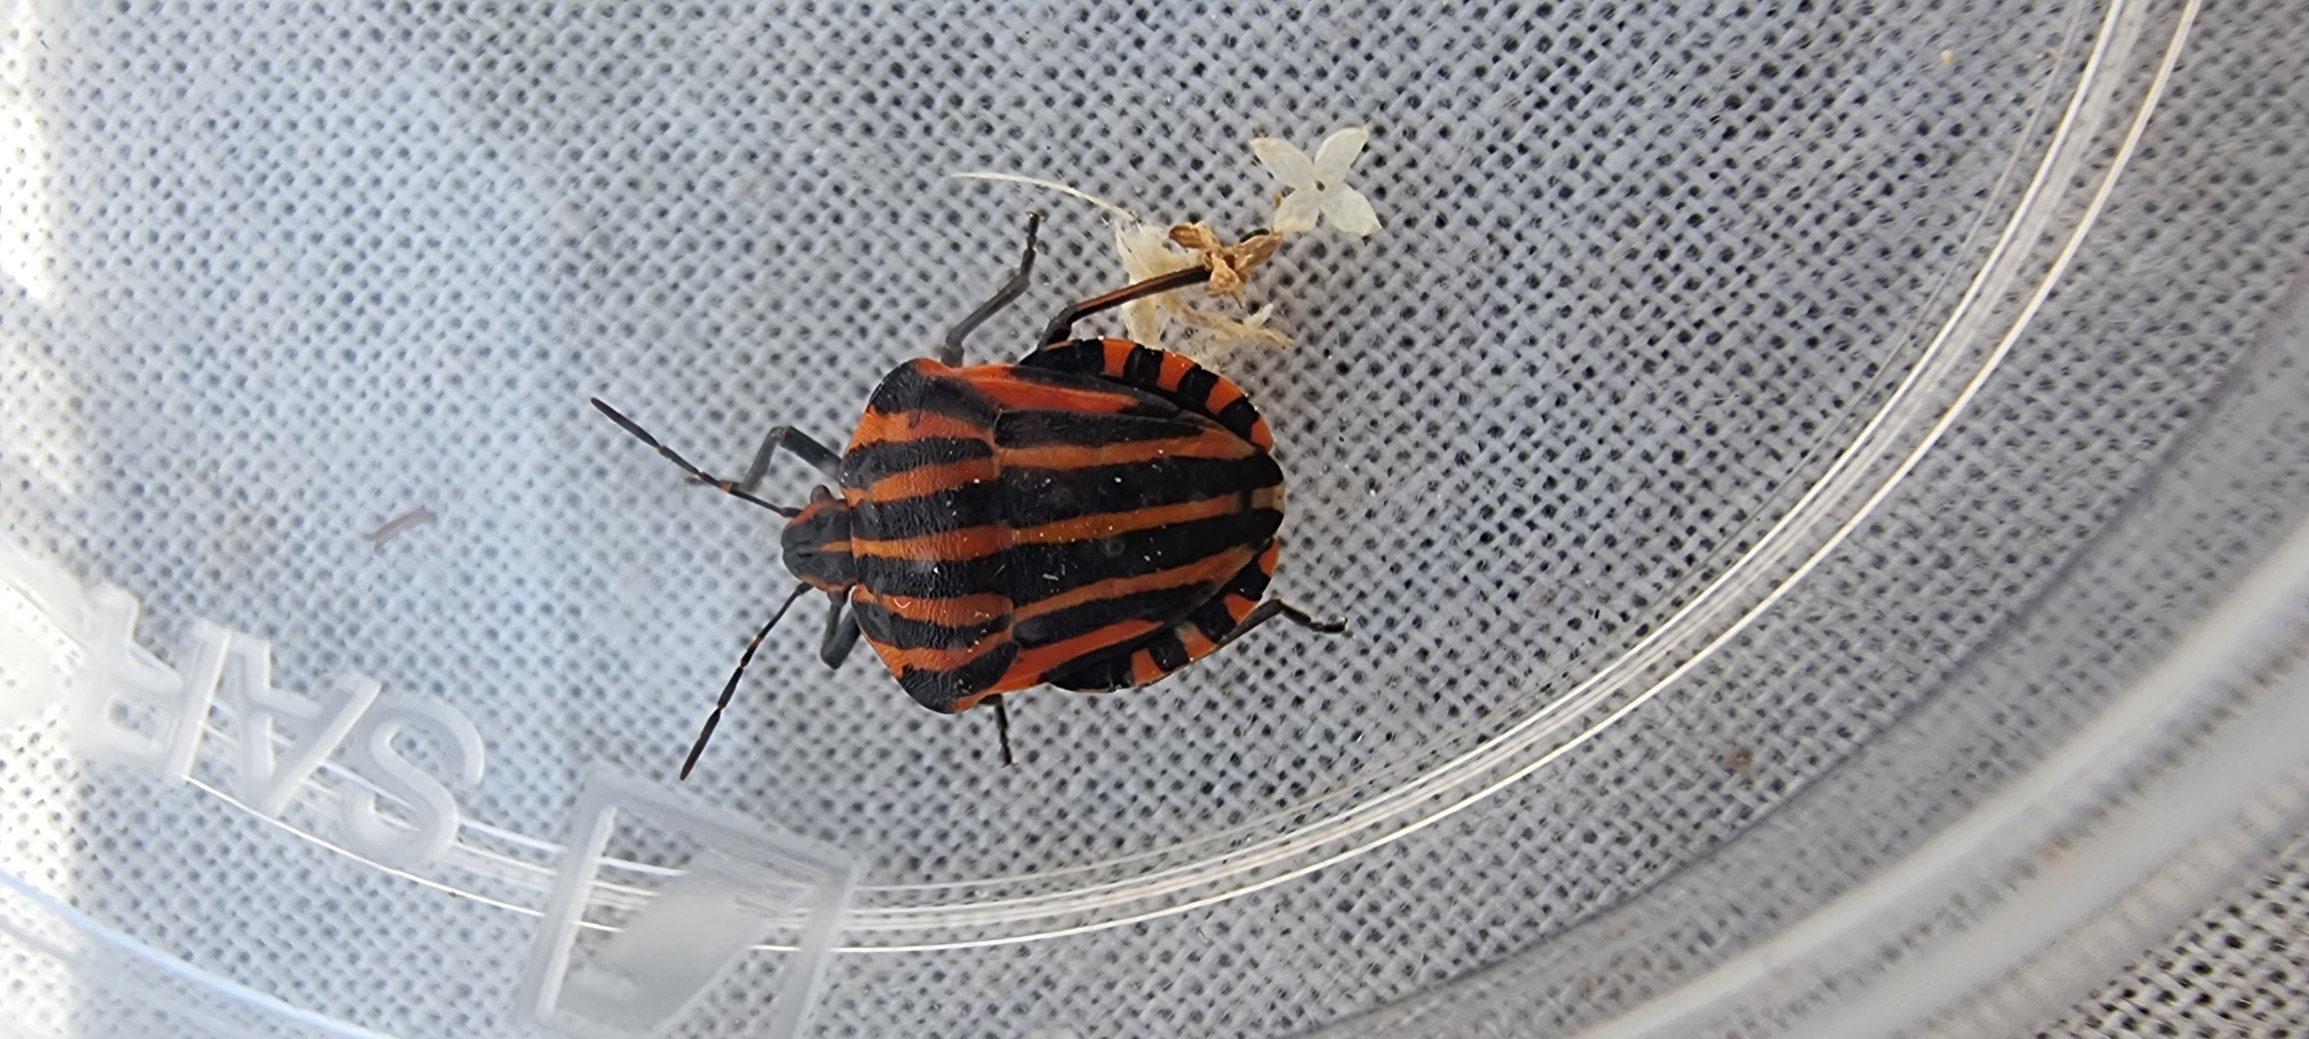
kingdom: Animalia
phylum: Arthropoda
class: Insecta
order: Hemiptera
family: Pentatomidae
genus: Graphosoma
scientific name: Graphosoma italicum
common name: Stribetæge
